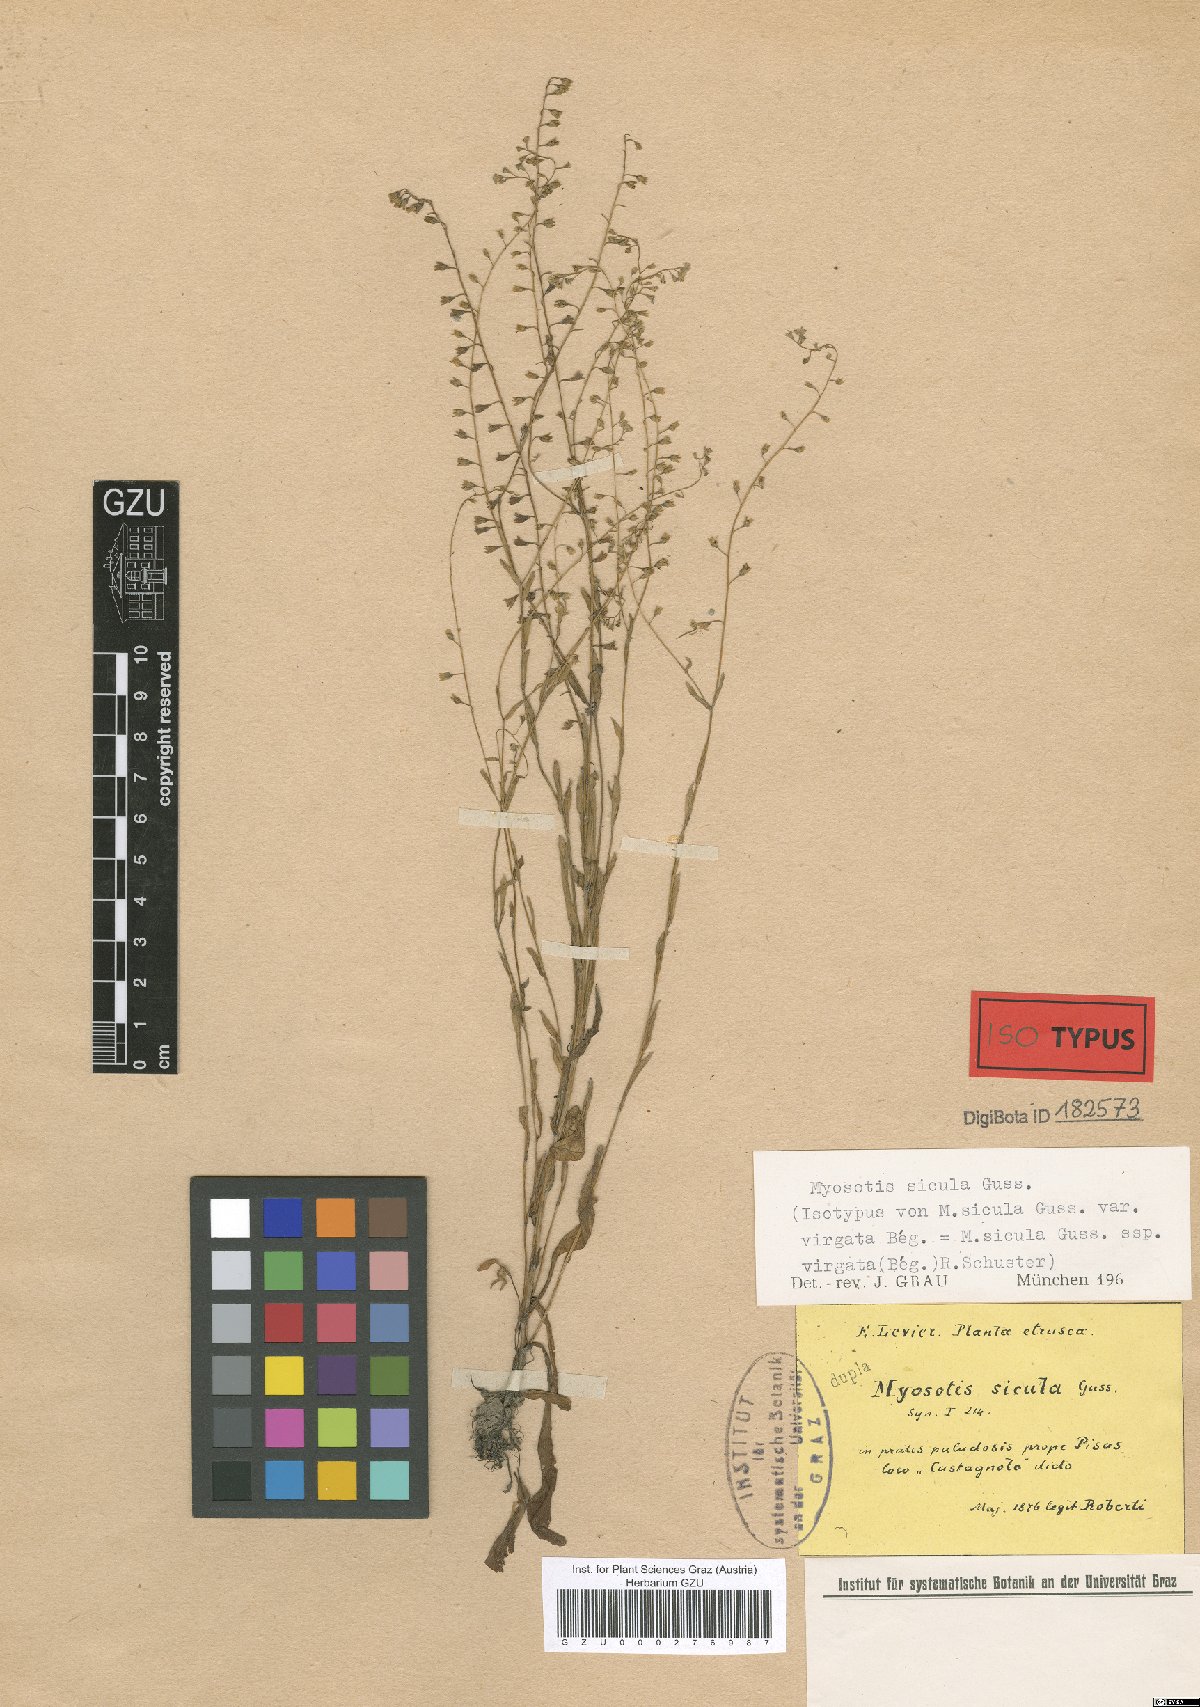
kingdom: Plantae
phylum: Tracheophyta
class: Magnoliopsida
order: Boraginales
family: Boraginaceae
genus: Myosotis
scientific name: Myosotis sicula
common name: Jersey forget-me-not
